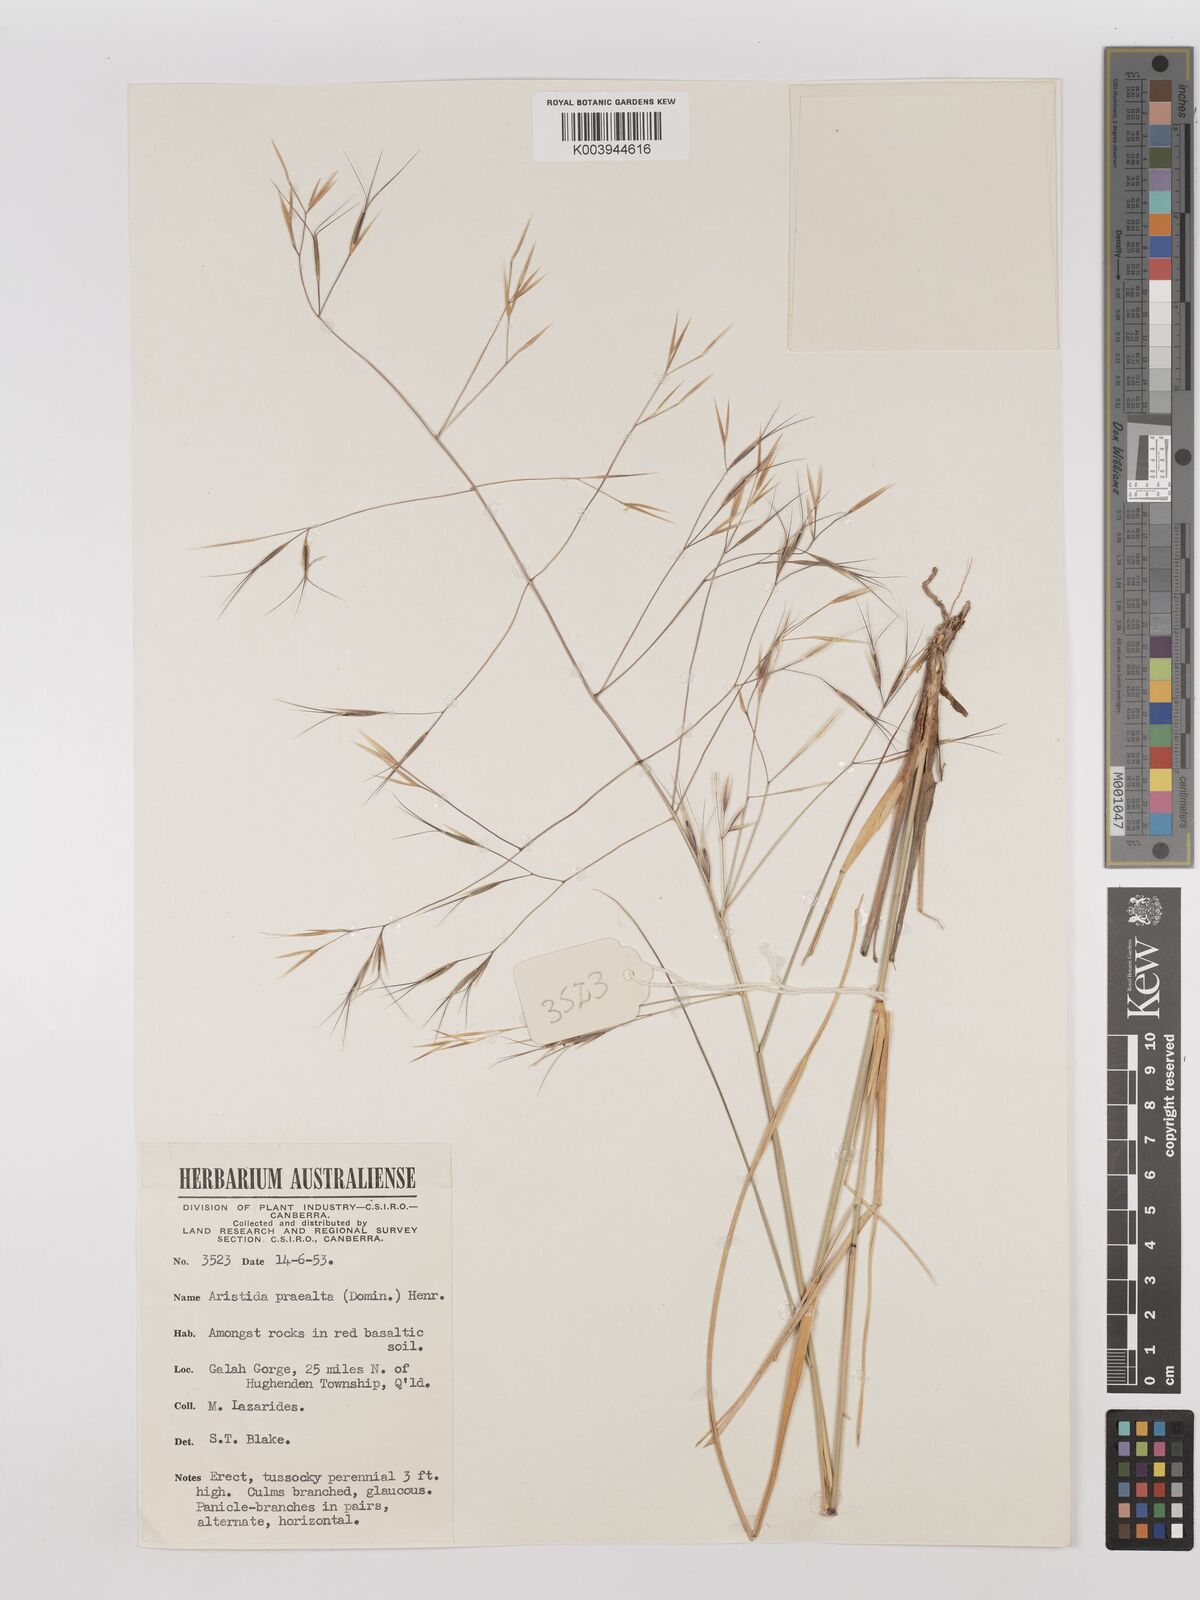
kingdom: Plantae
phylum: Tracheophyta
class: Liliopsida
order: Poales
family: Poaceae
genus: Aristida
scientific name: Aristida calycina
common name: Dark wire grass
